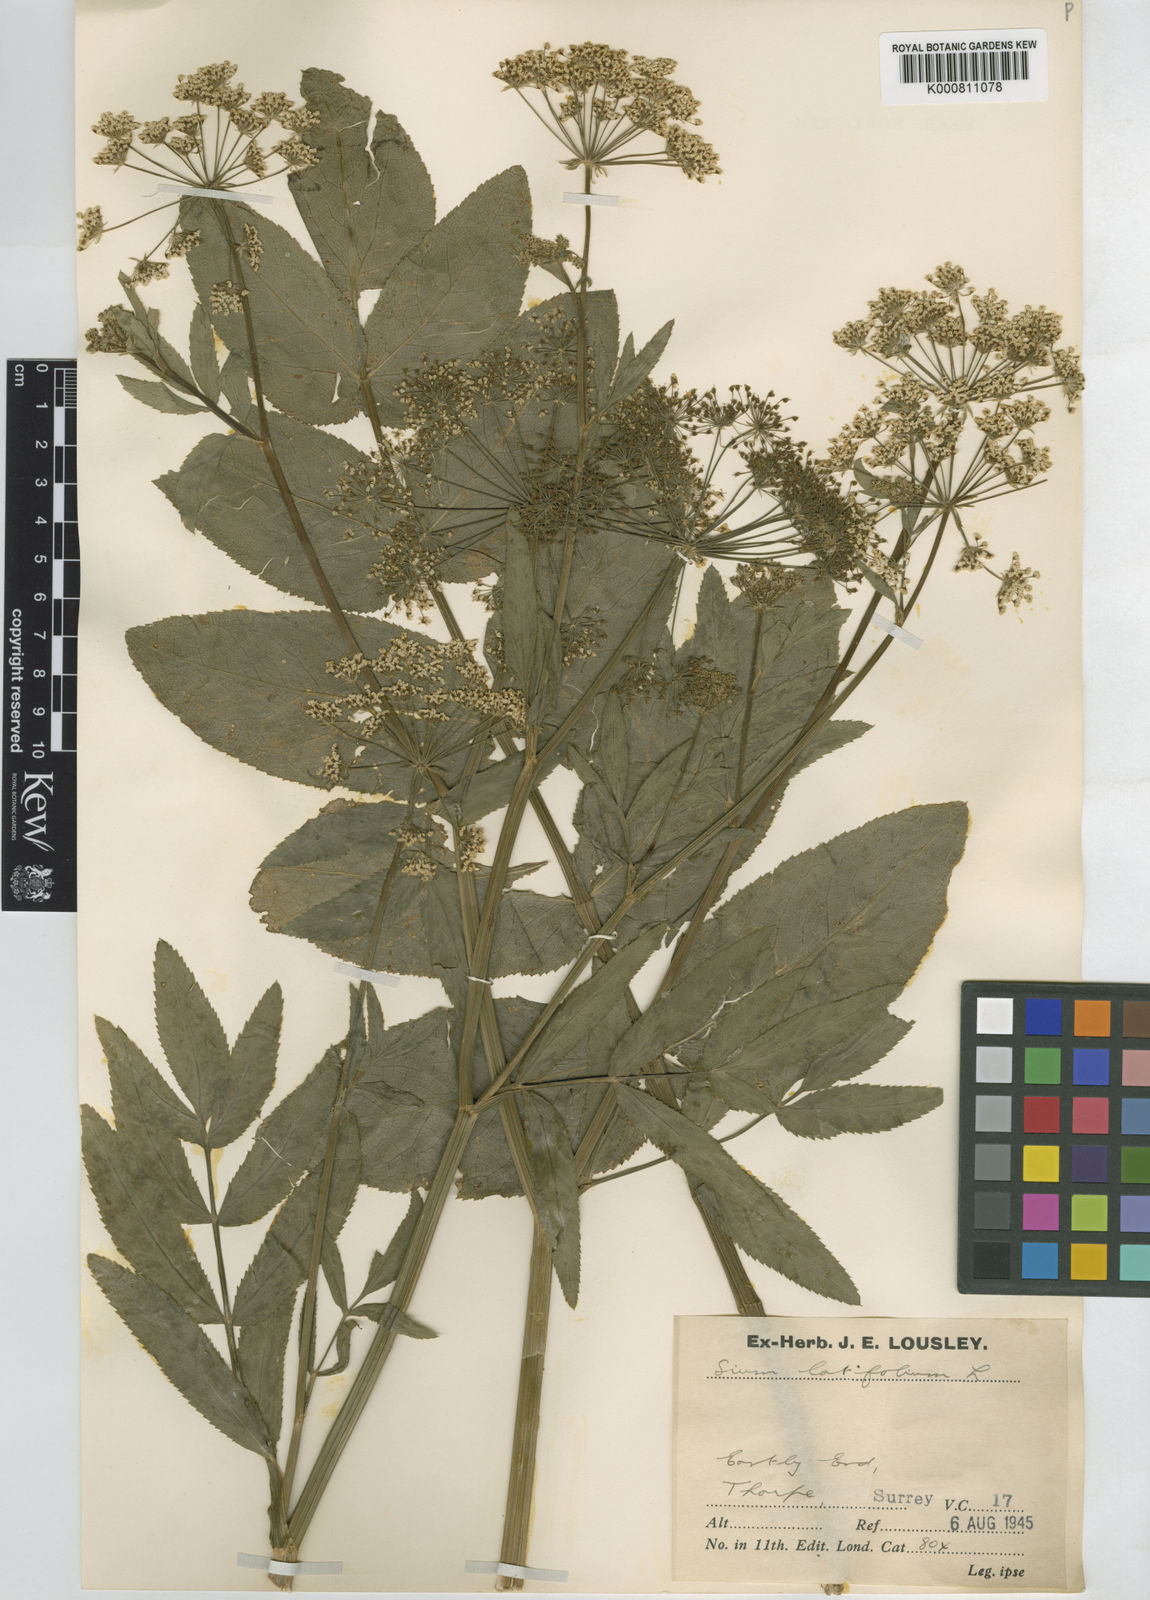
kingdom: Plantae
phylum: Tracheophyta
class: Magnoliopsida
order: Apiales
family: Apiaceae
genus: Sium
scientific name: Sium latifolium
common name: Greater water-parsnip
